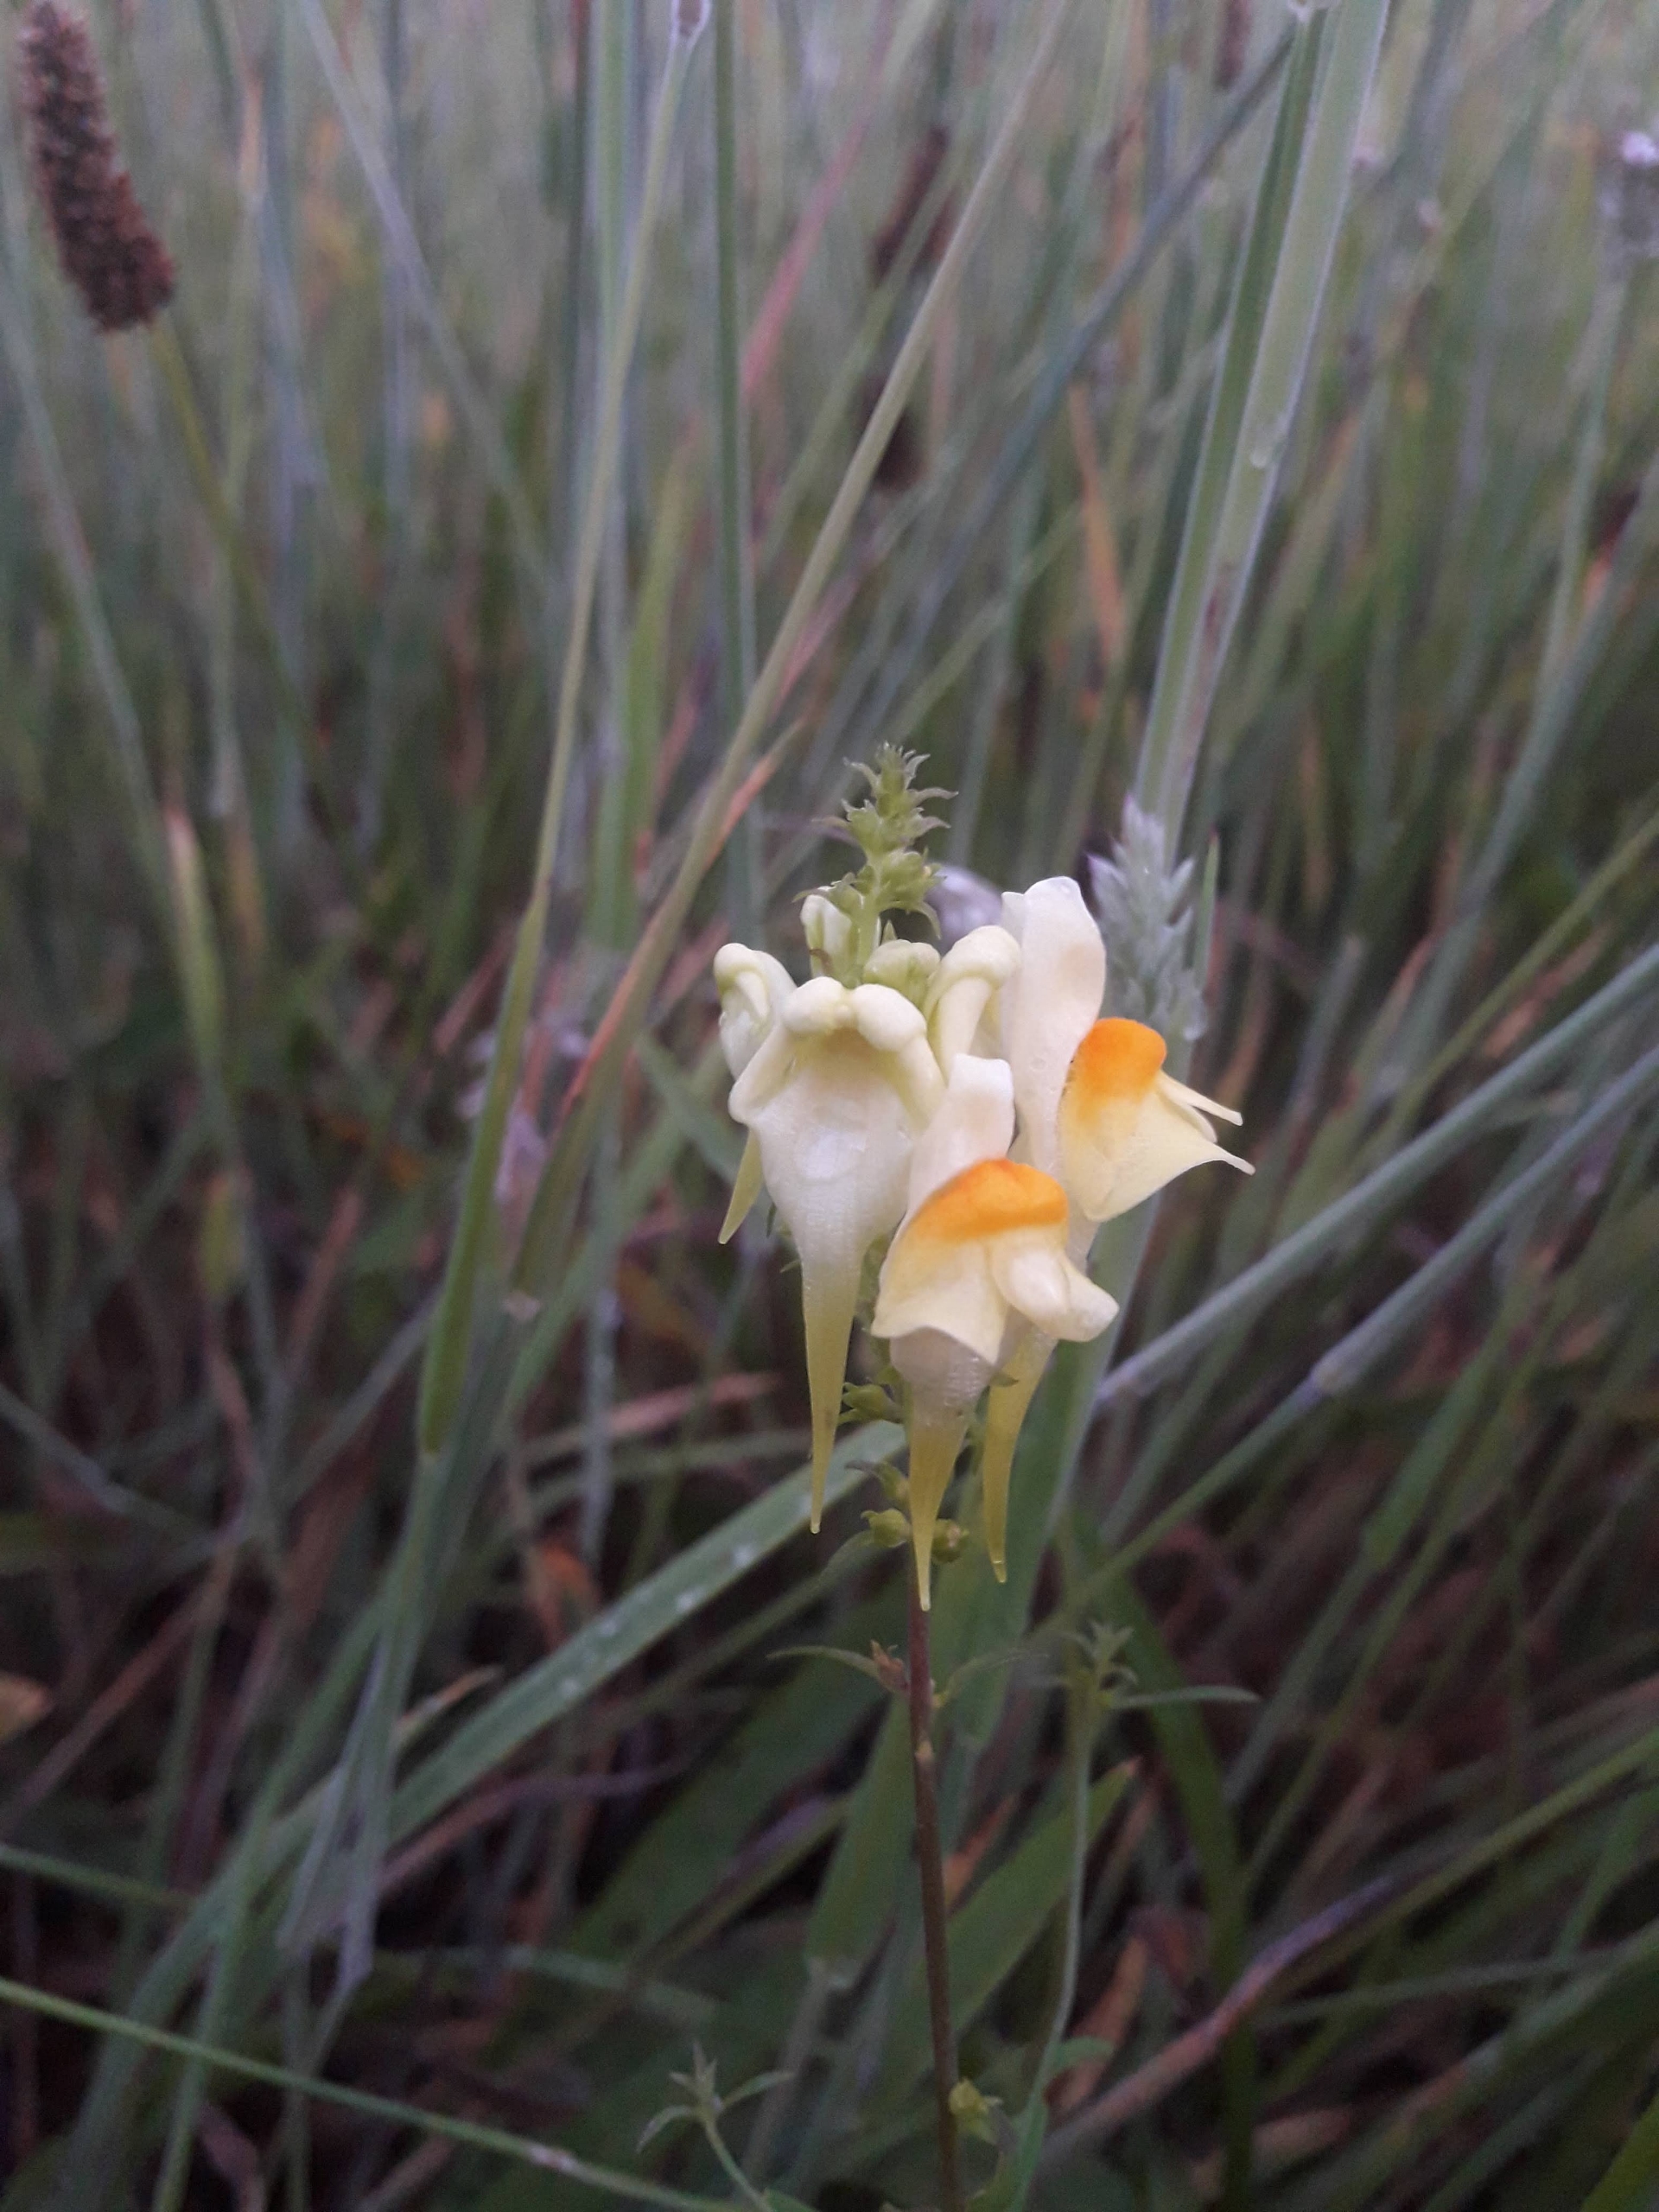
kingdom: Plantae
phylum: Tracheophyta
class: Magnoliopsida
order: Lamiales
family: Plantaginaceae
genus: Linaria
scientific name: Linaria vulgaris
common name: Almindelig torskemund
